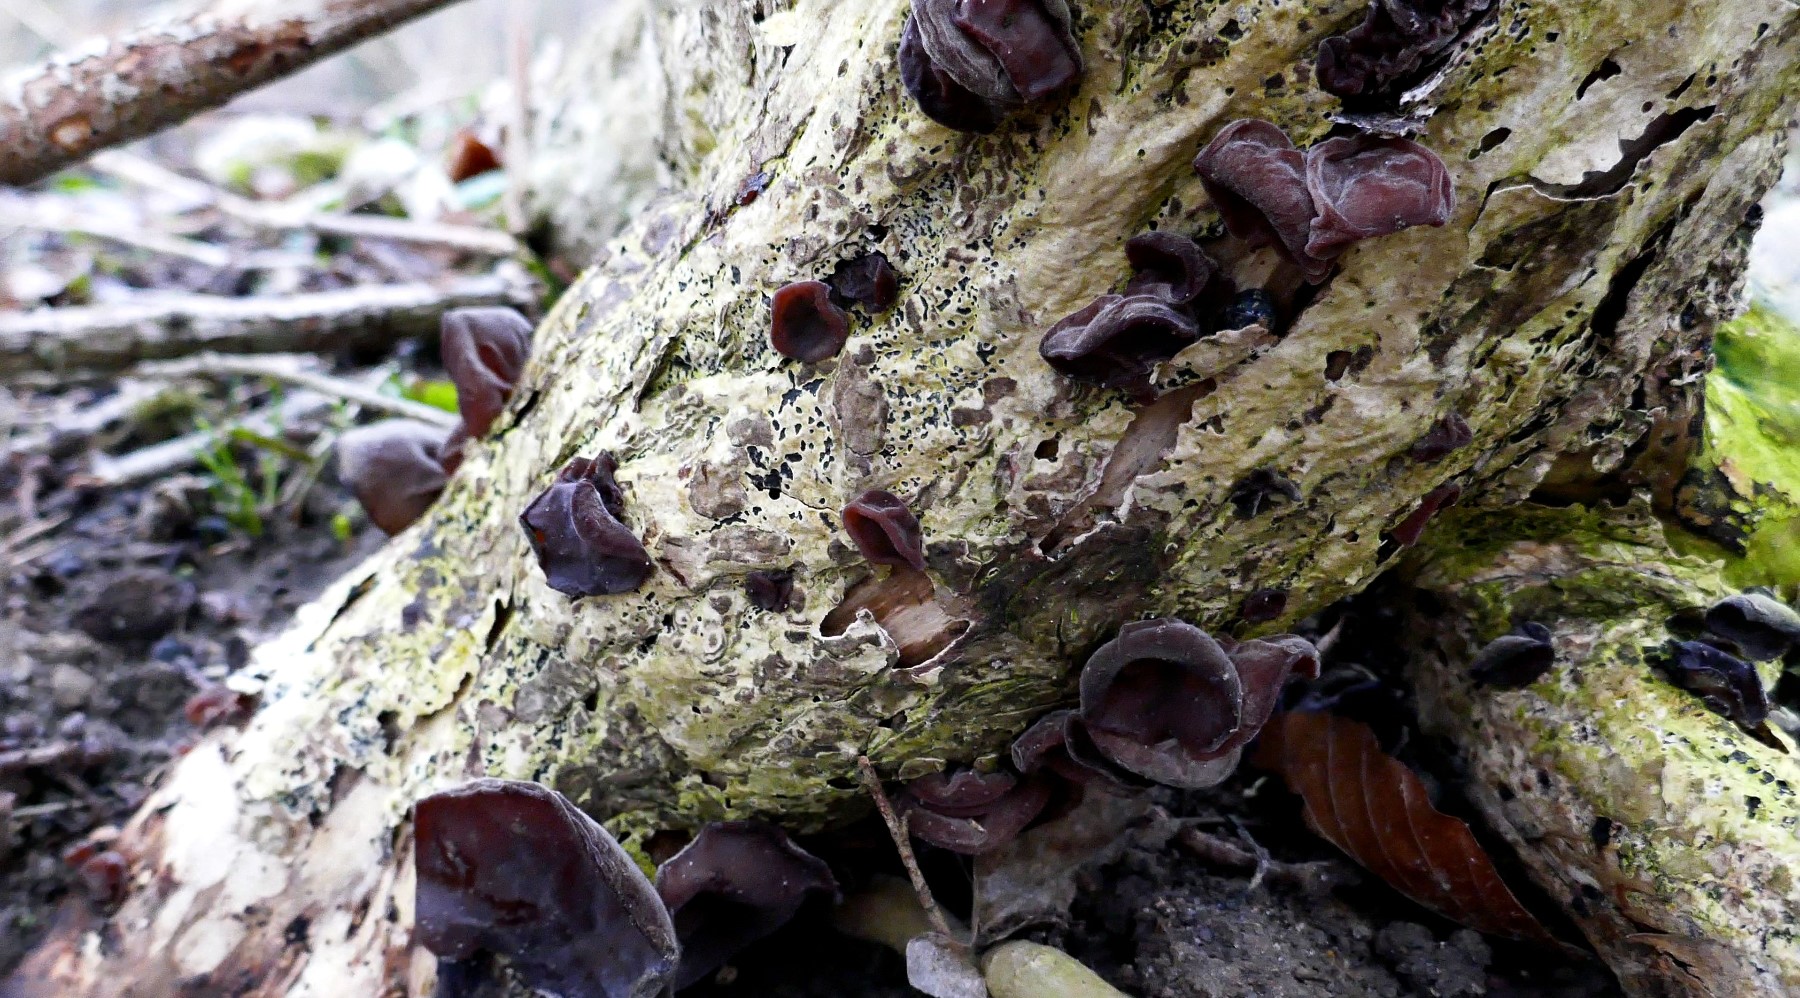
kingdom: Fungi
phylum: Basidiomycota
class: Agaricomycetes
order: Auriculariales
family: Auriculariaceae
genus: Auricularia
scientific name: Auricularia auricula-judae
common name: almindelig judasøre
